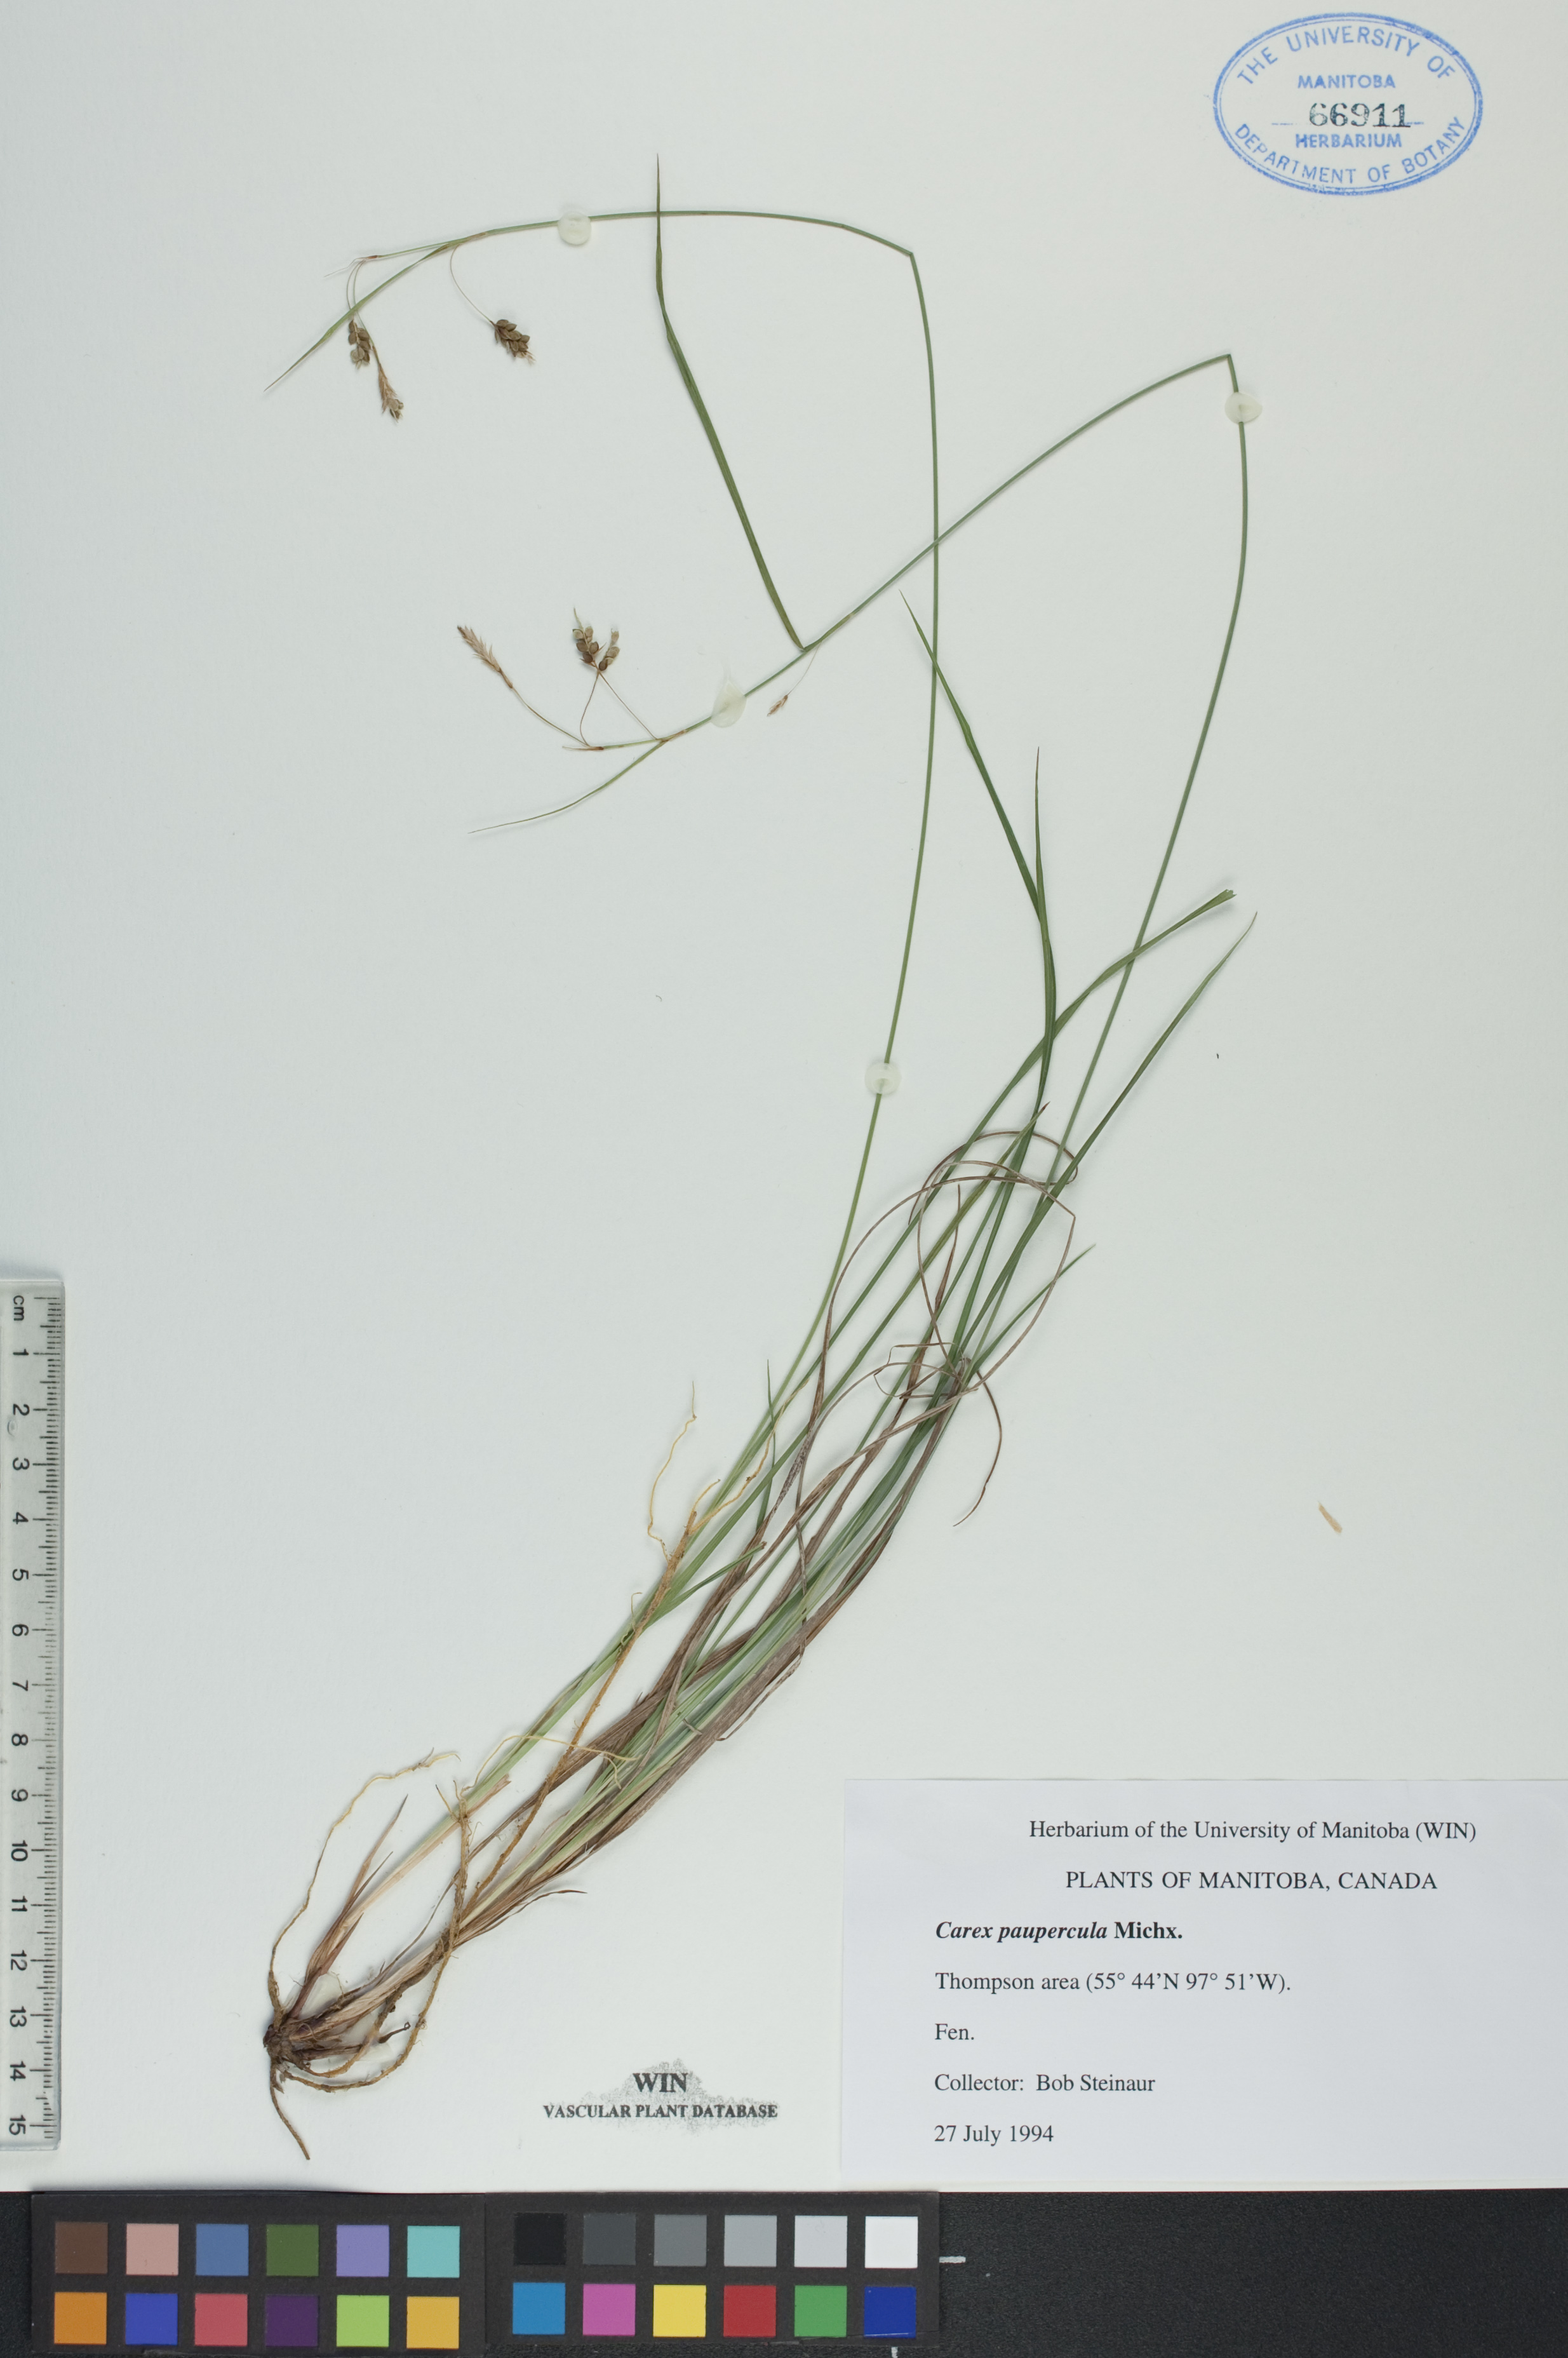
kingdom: Plantae
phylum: Tracheophyta
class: Liliopsida
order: Poales
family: Cyperaceae
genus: Carex
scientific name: Carex magellanica
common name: Bog sedge
